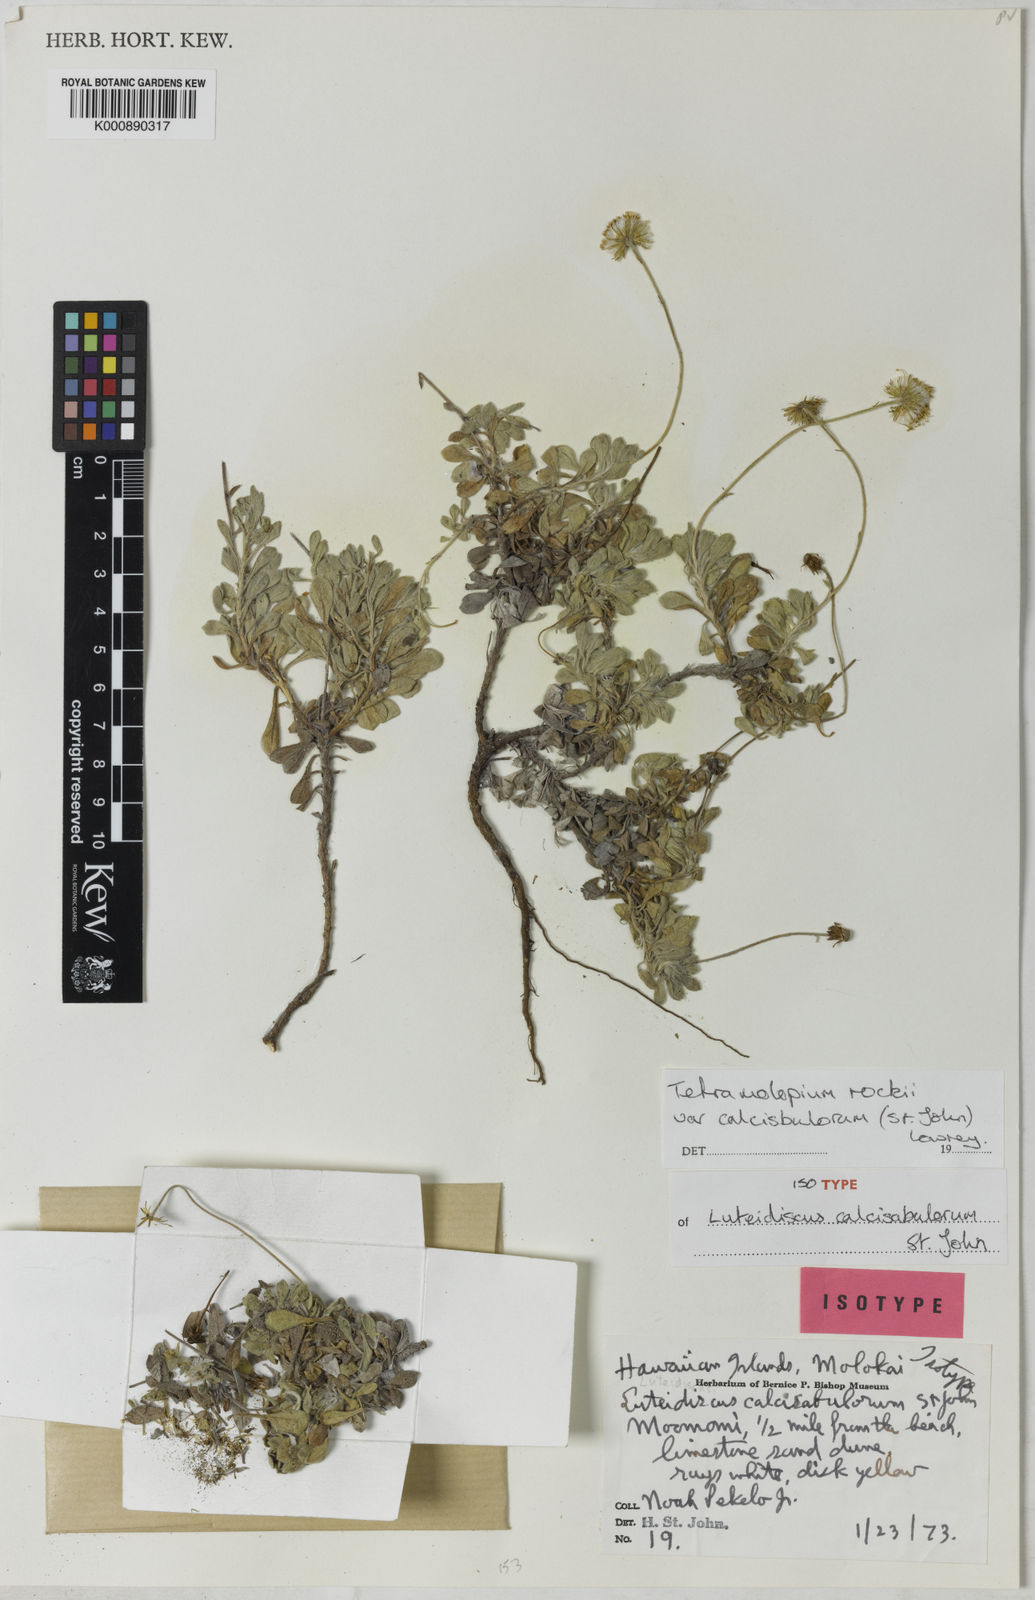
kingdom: Plantae
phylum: Tracheophyta
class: Magnoliopsida
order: Asterales
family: Asteraceae
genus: Tetramolopium
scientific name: Tetramolopium rockii
